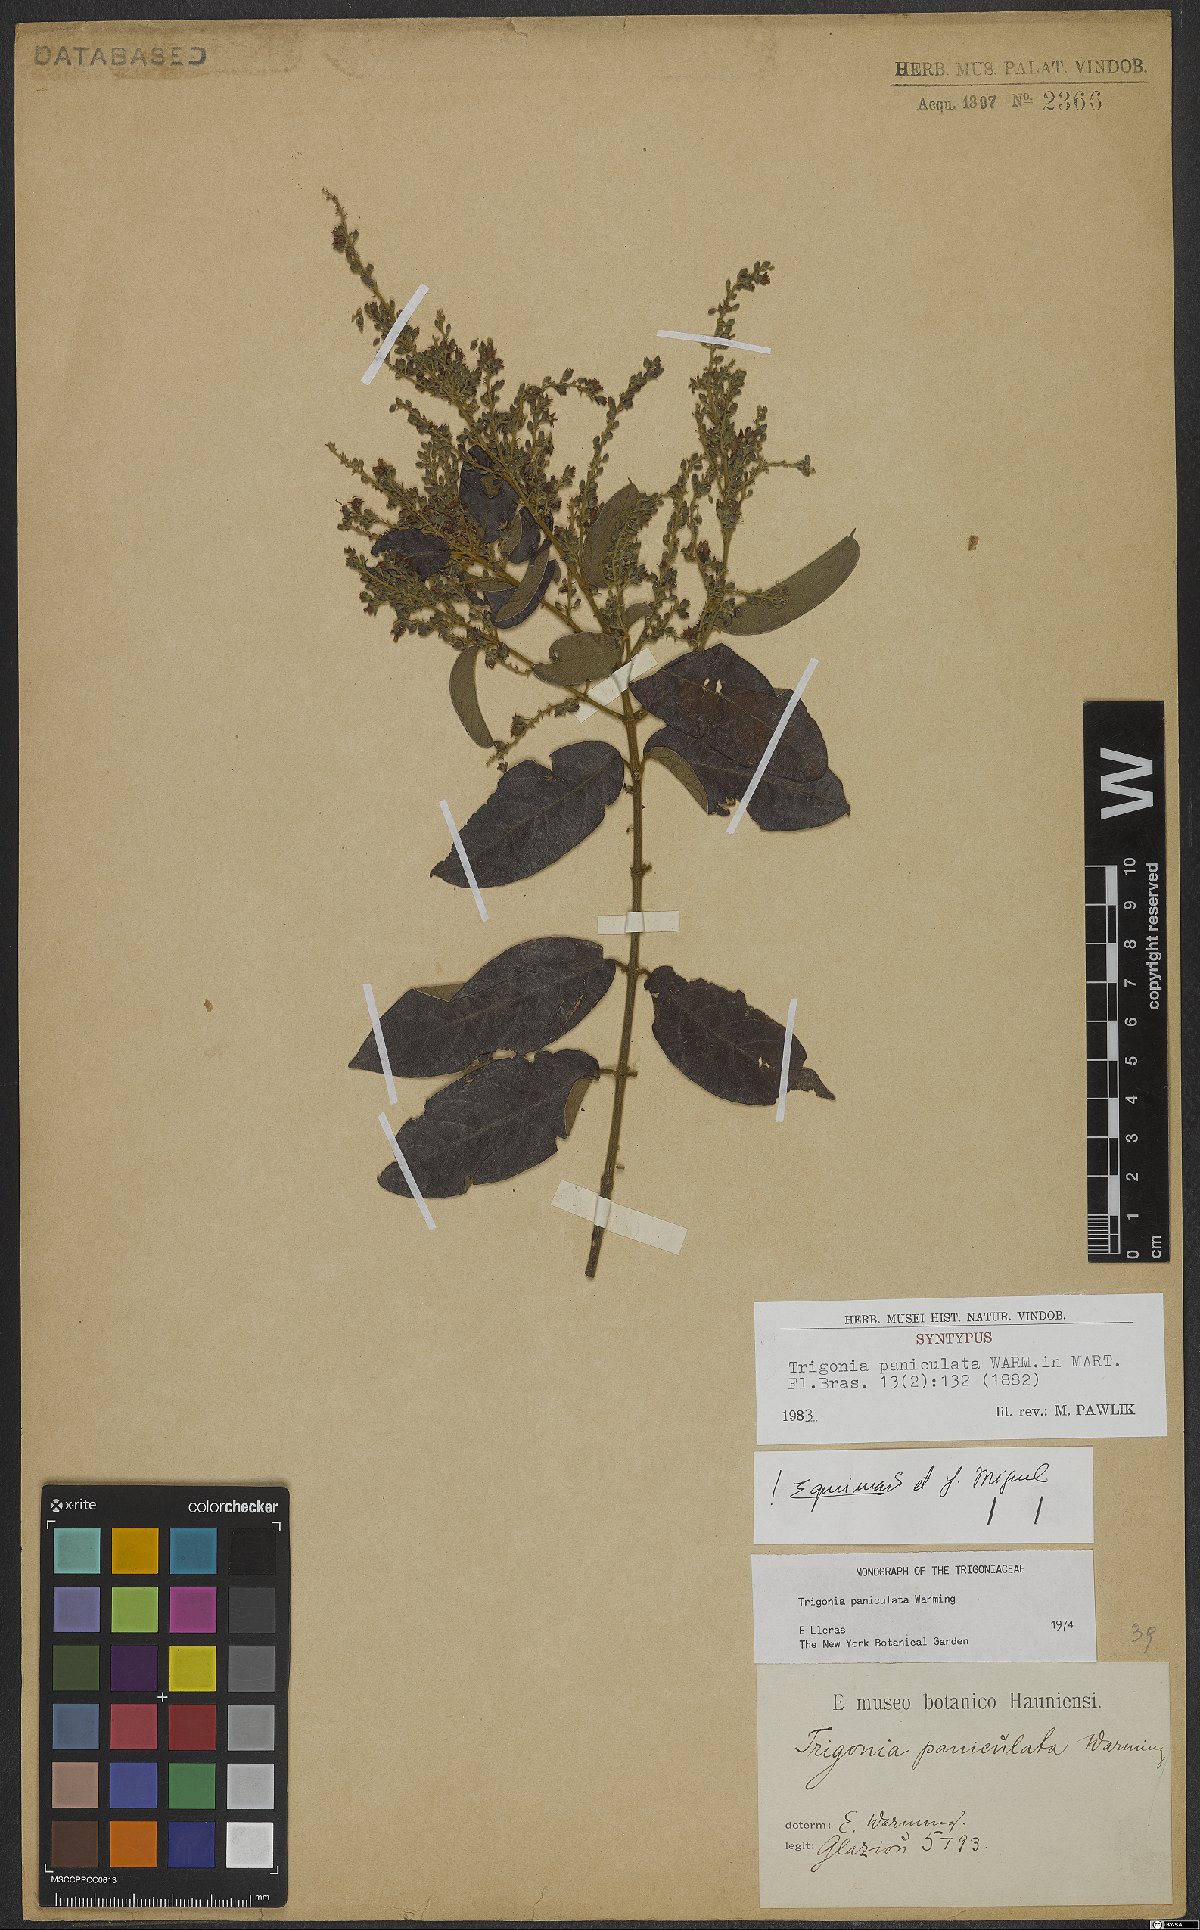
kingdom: Plantae
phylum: Tracheophyta
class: Magnoliopsida
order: Malpighiales
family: Trigoniaceae
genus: Trigonia
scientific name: Trigonia paniculata
